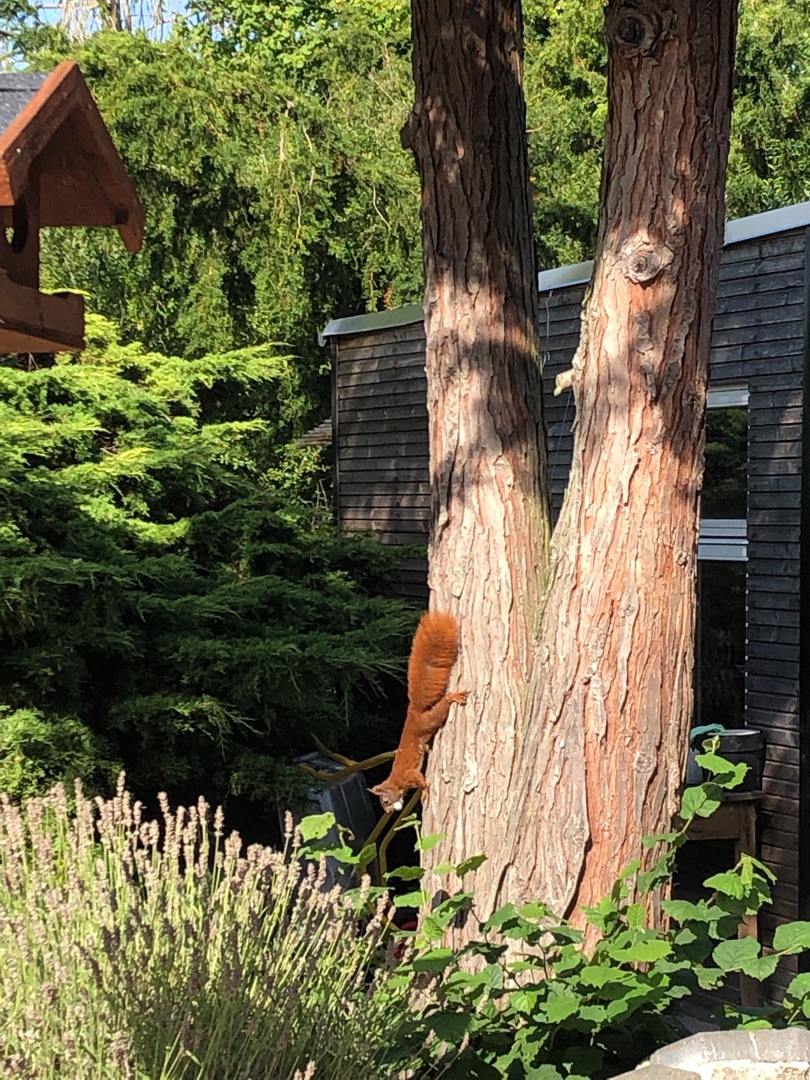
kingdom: Animalia
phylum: Chordata
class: Mammalia
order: Rodentia
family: Sciuridae
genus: Sciurus
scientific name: Sciurus vulgaris
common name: Egern
